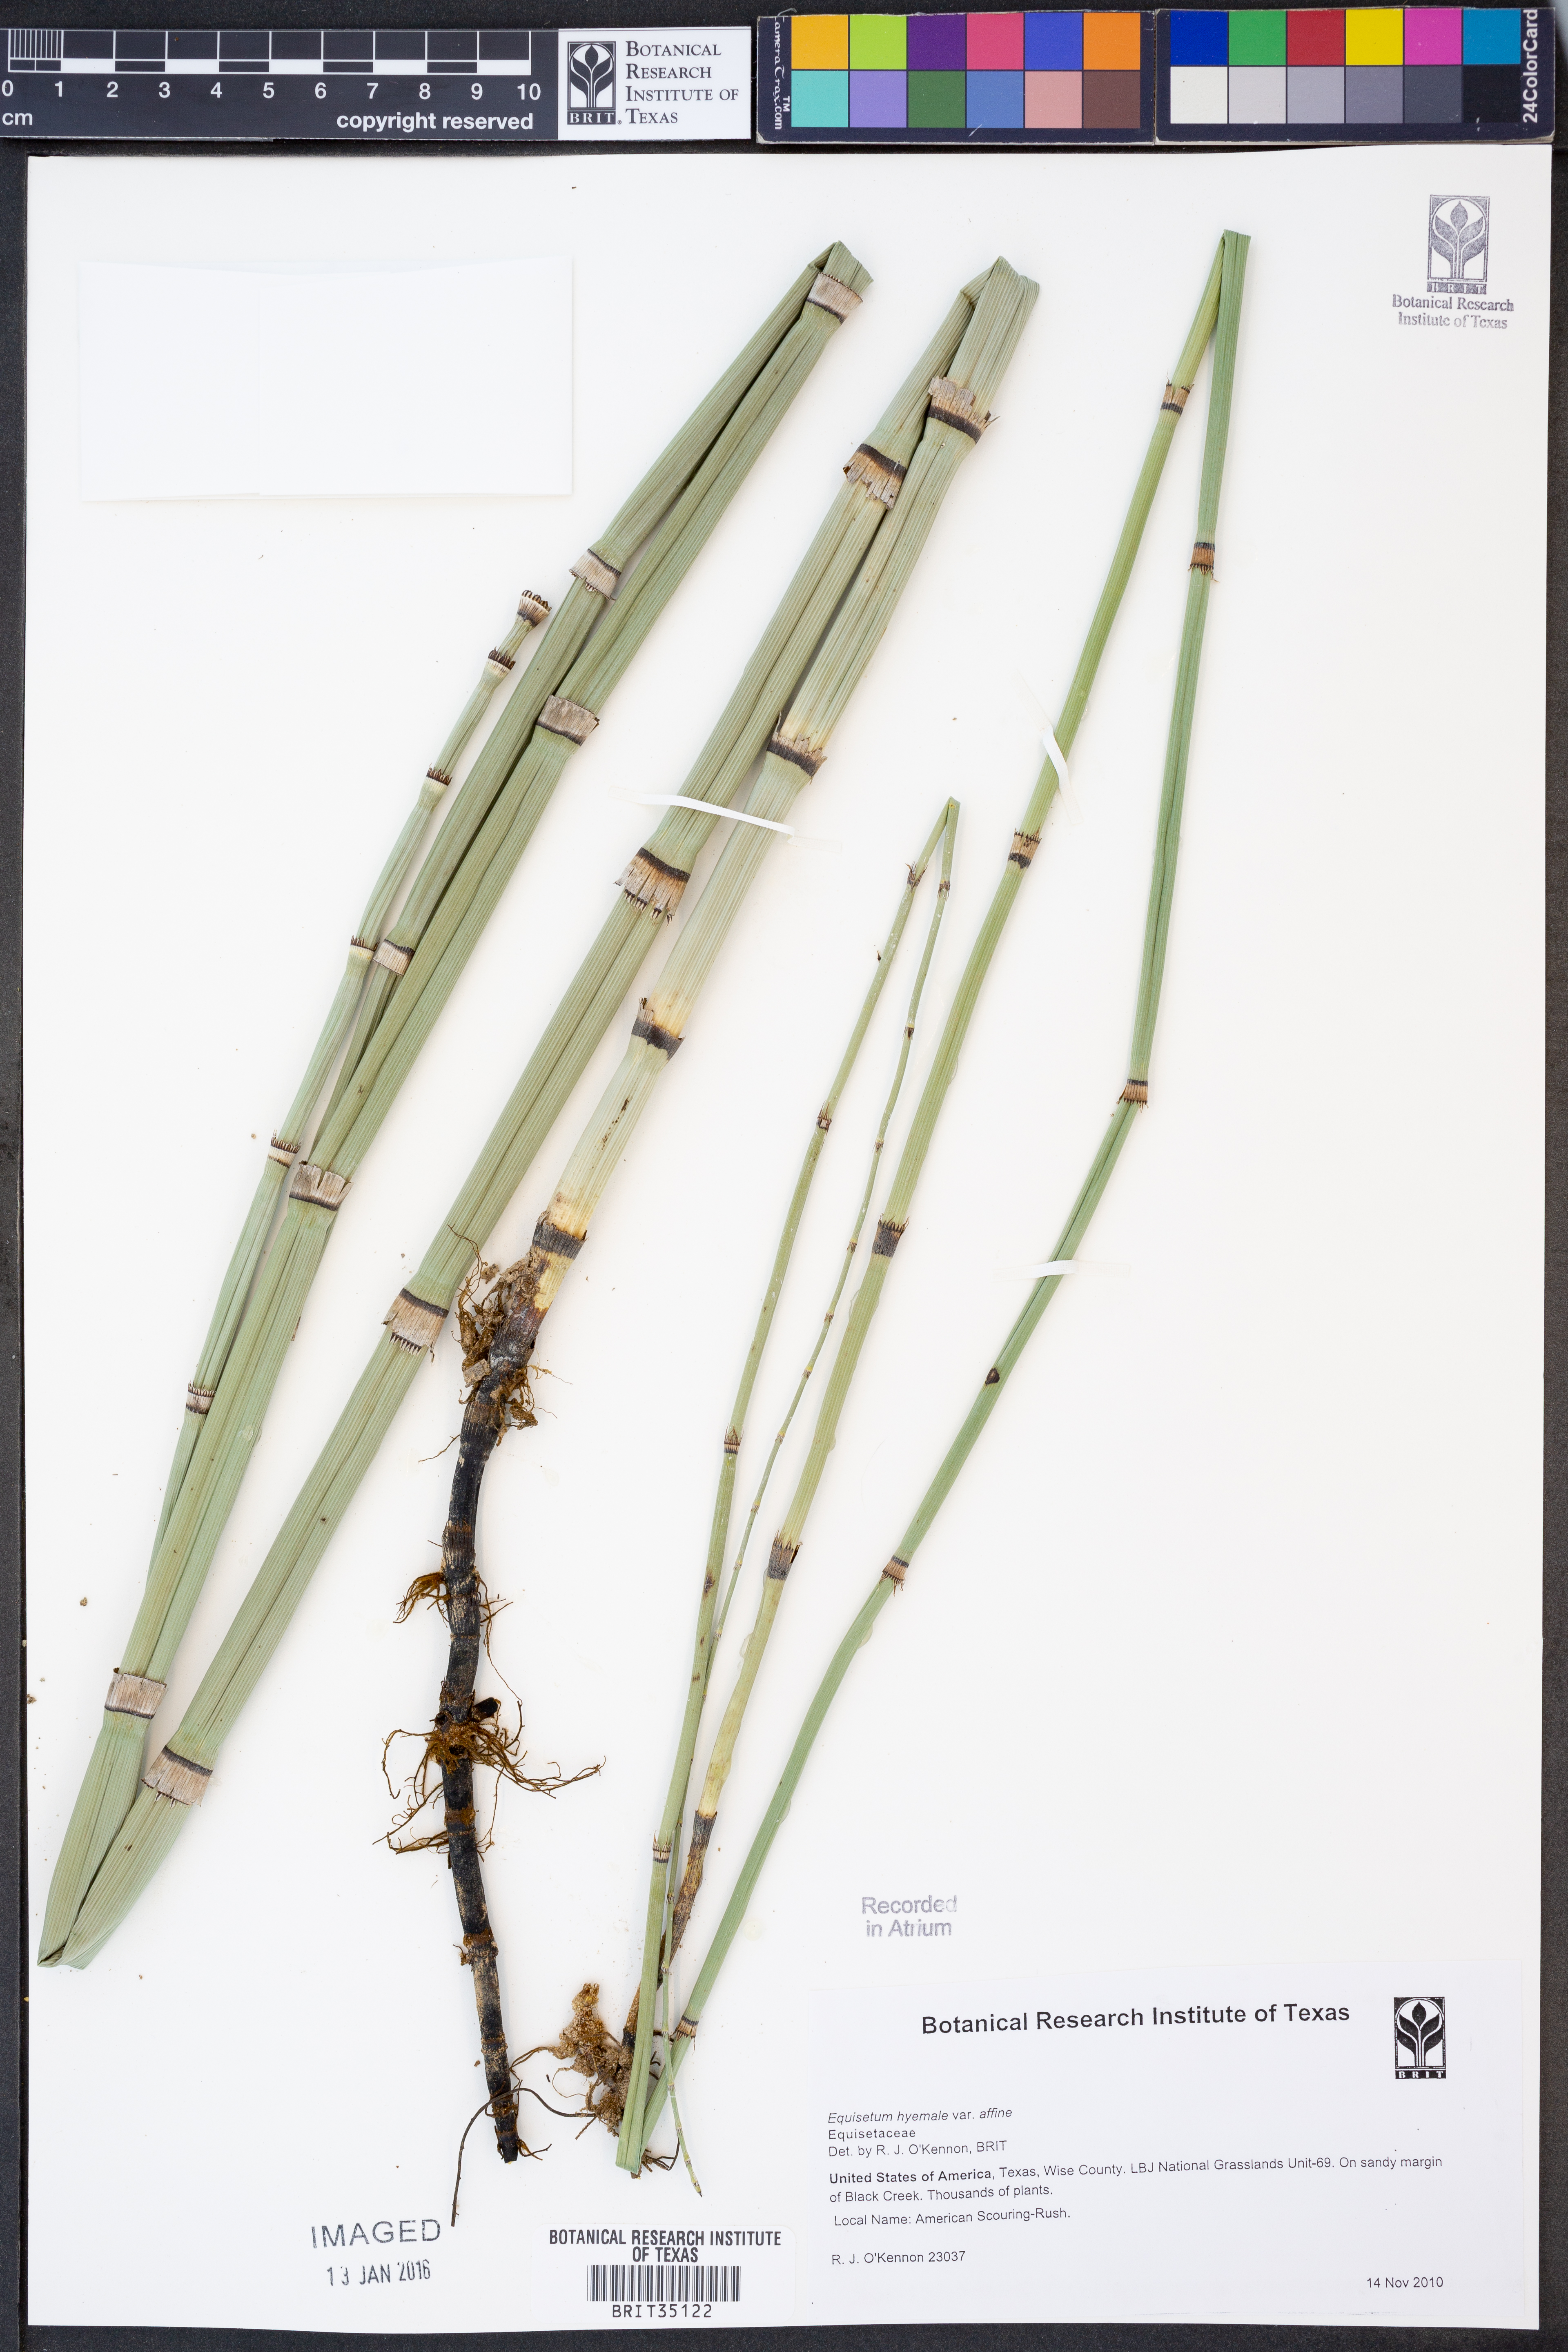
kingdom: Plantae
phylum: Tracheophyta
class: Polypodiopsida
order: Equisetales
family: Equisetaceae
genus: Equisetum
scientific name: Equisetum praealtum
